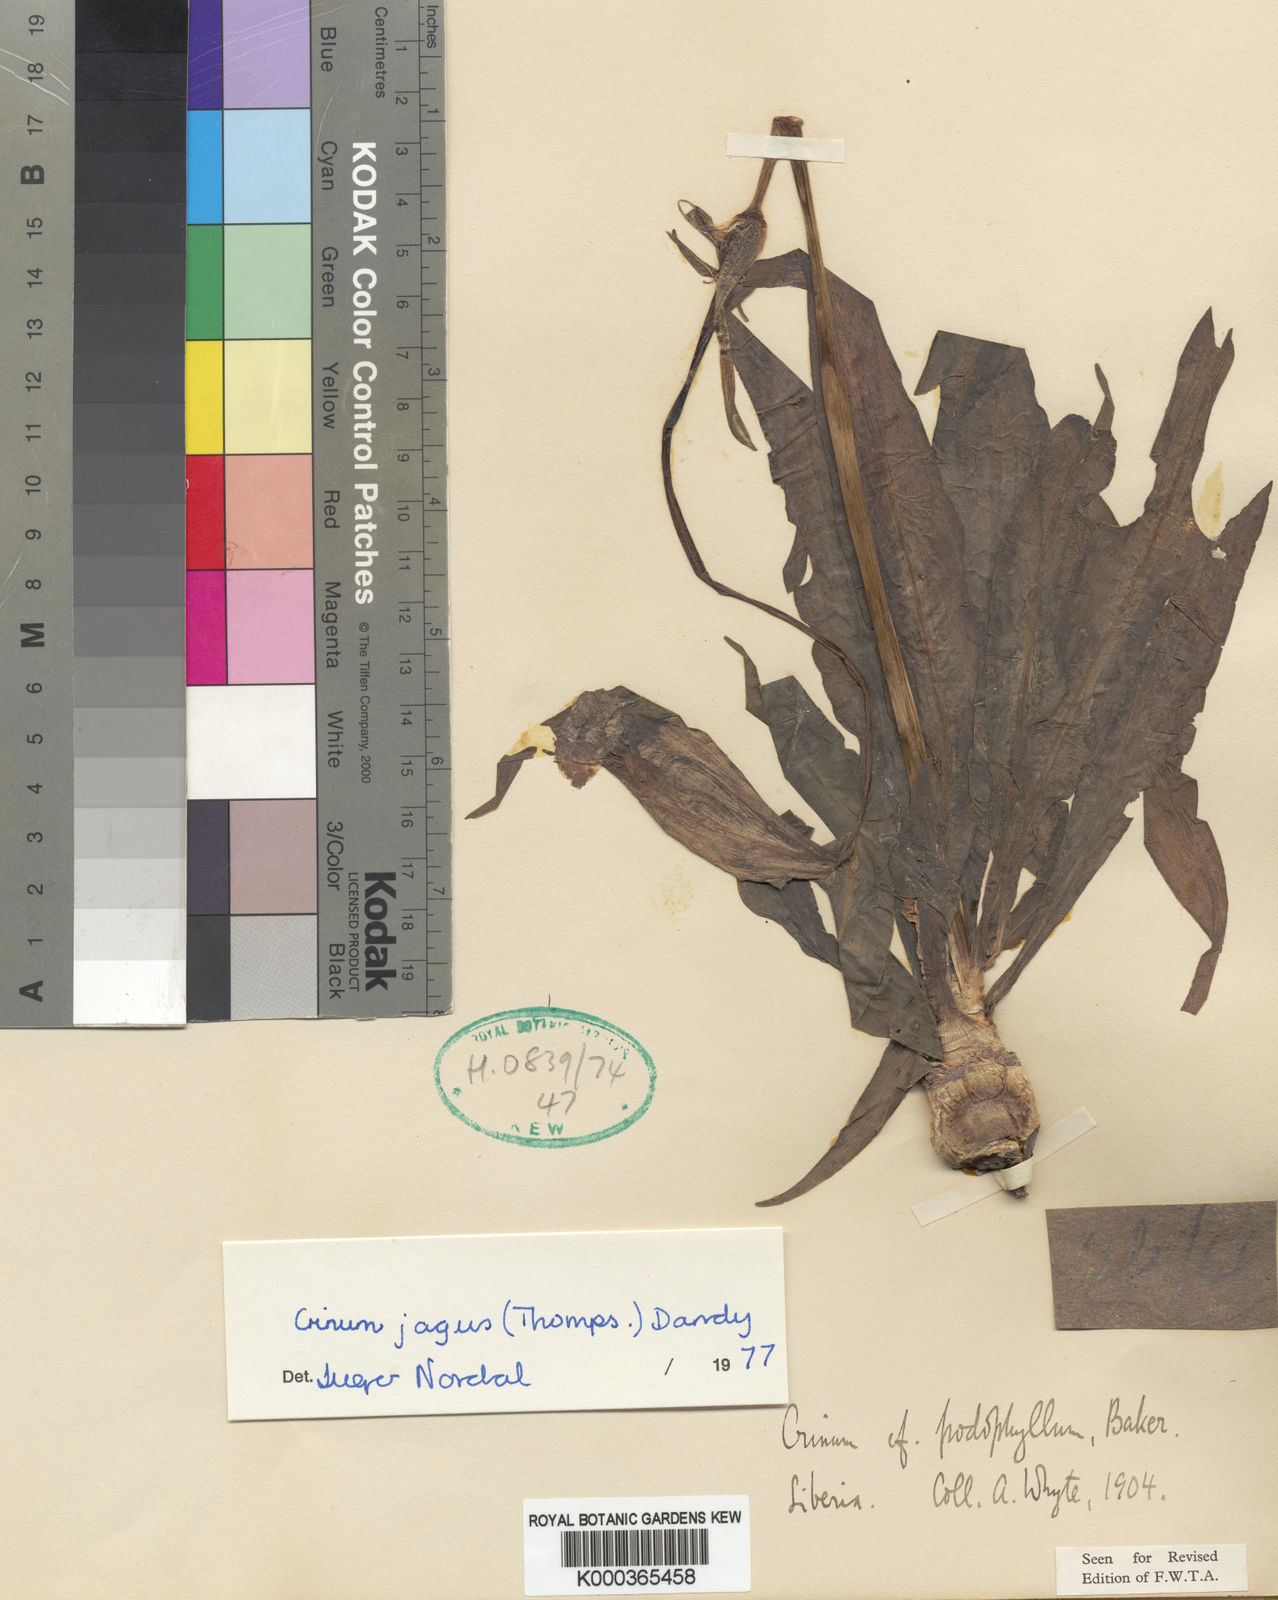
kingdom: Plantae
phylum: Tracheophyta
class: Liliopsida
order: Asparagales
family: Amaryllidaceae
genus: Crinum
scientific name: Crinum jagus
